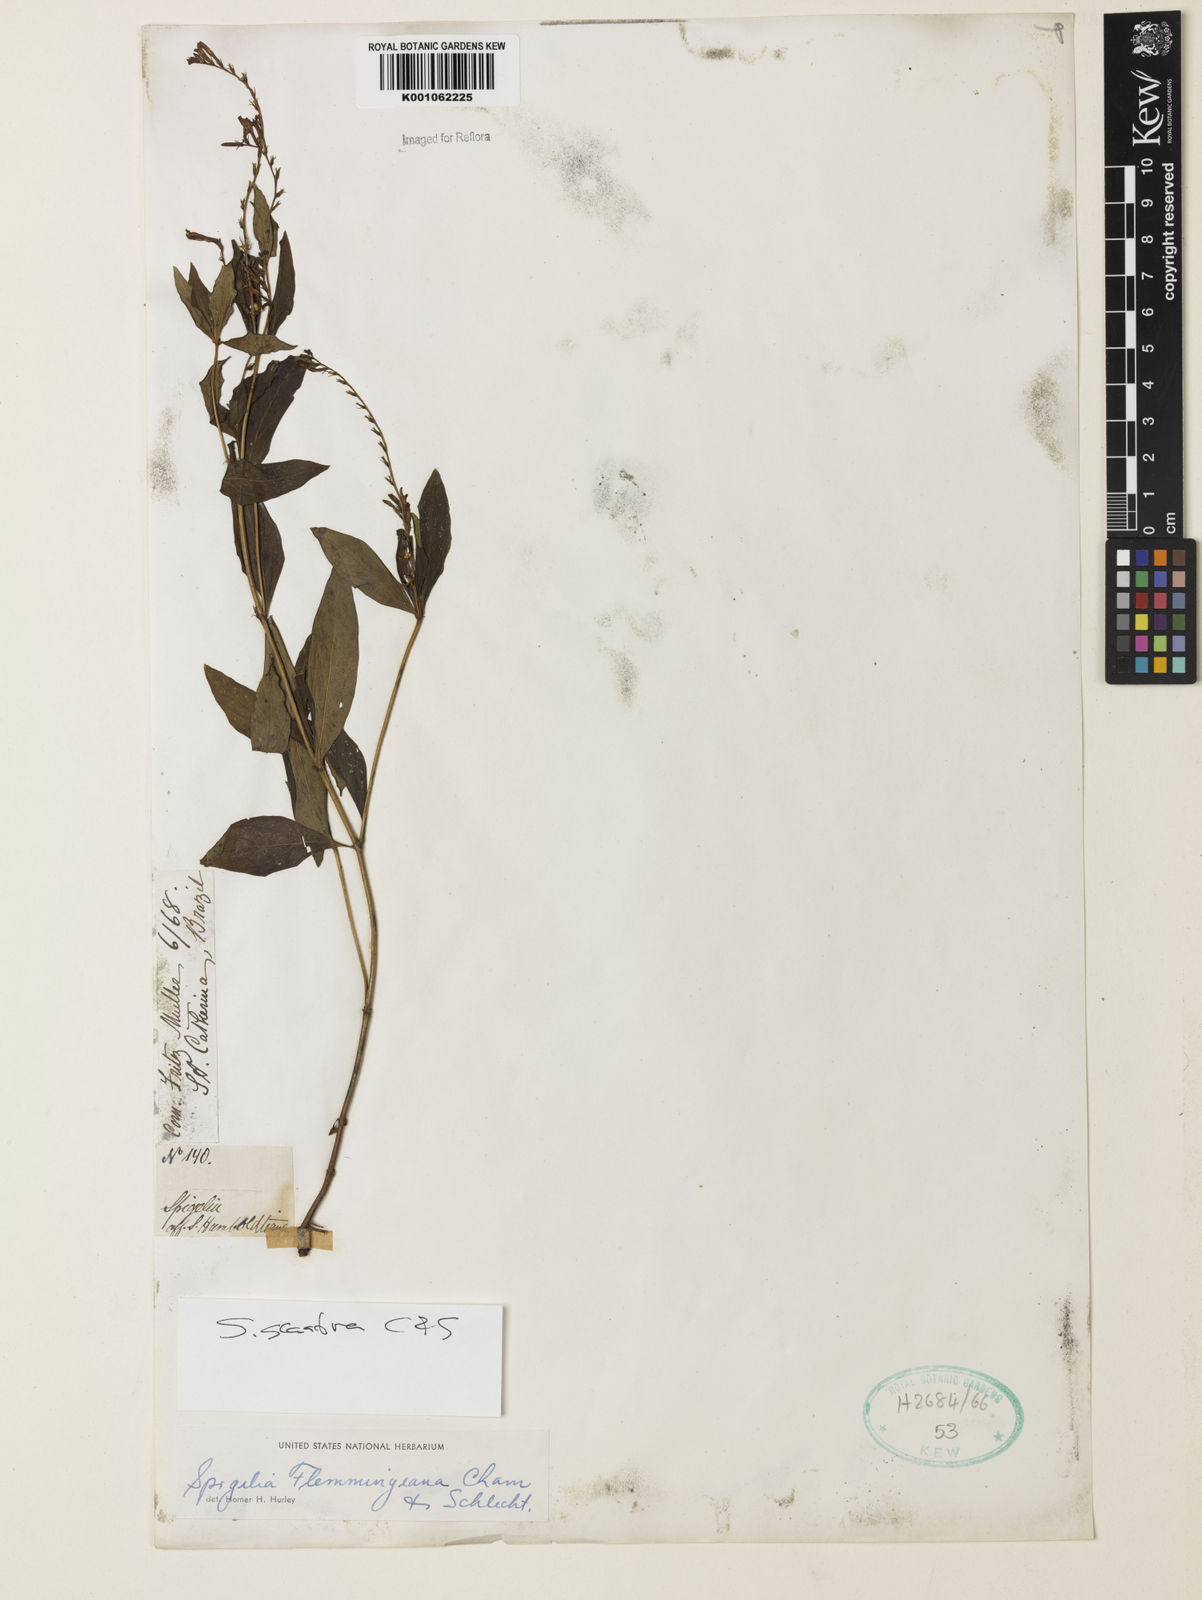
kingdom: Plantae
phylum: Tracheophyta
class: Magnoliopsida
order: Gentianales
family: Loganiaceae
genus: Spigelia
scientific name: Spigelia flemmingiana
